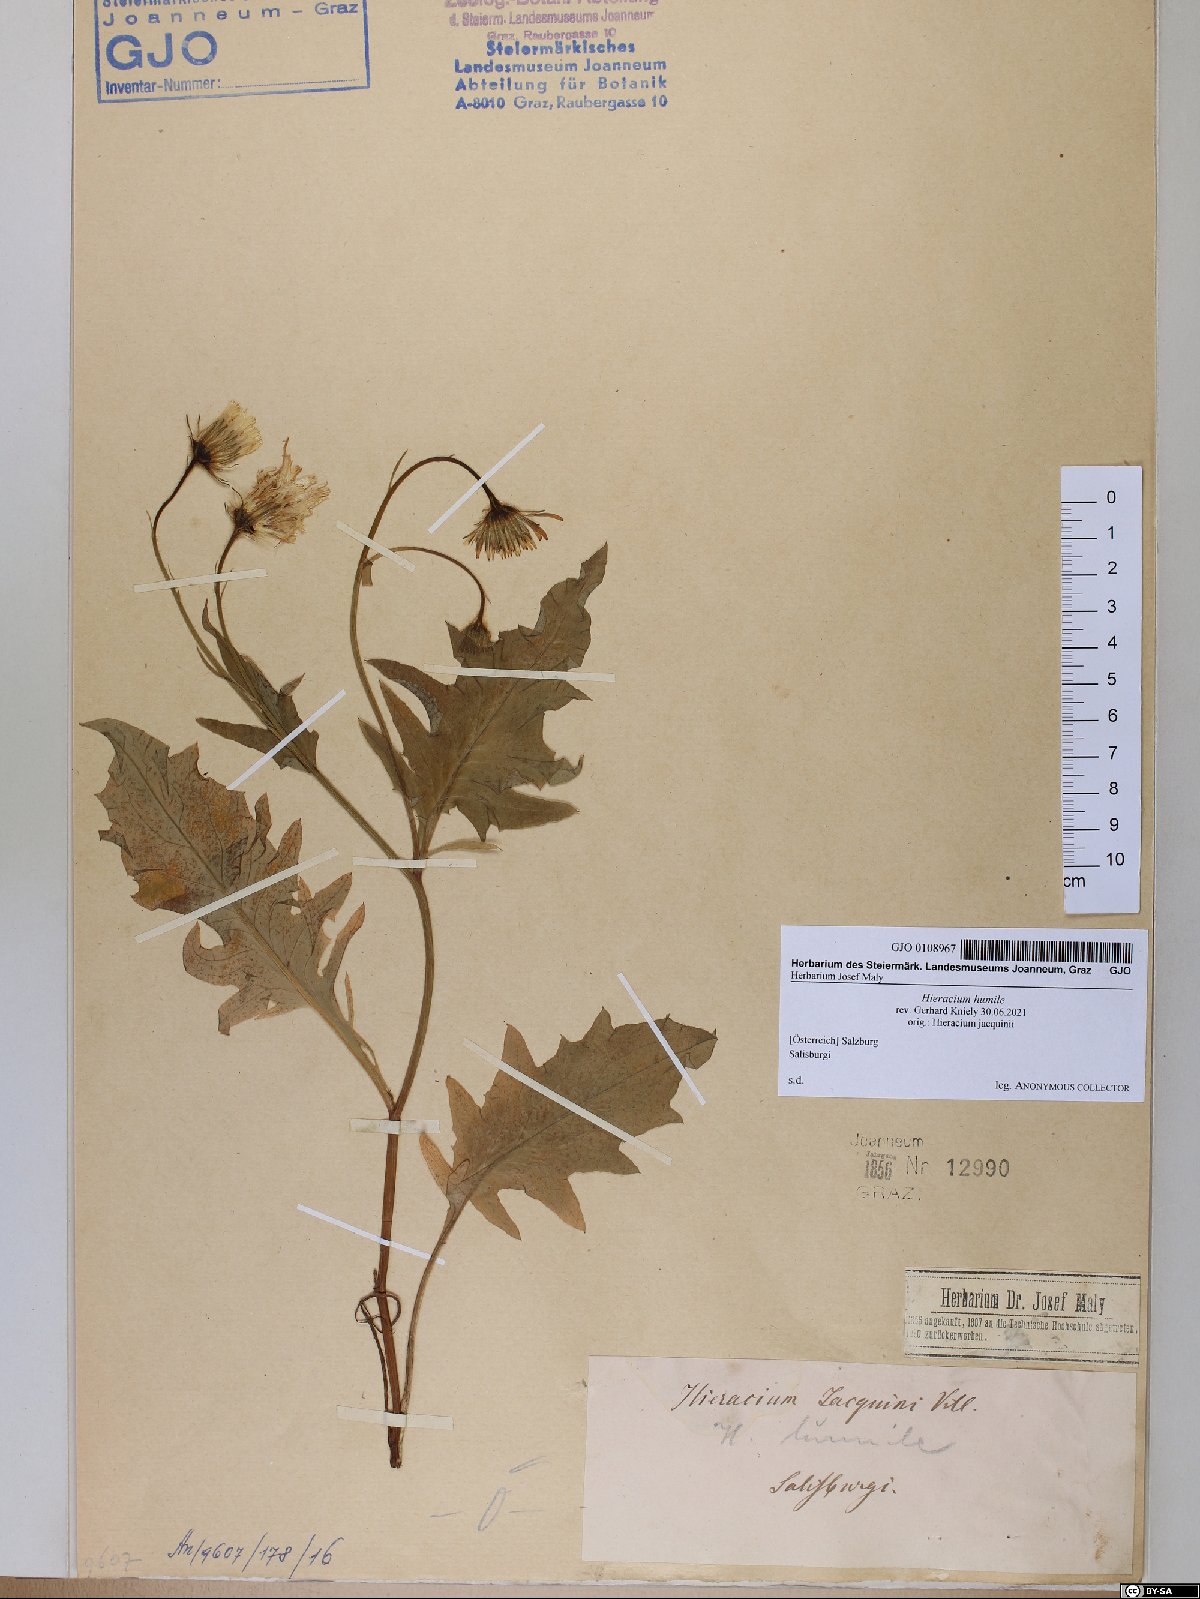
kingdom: Plantae
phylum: Tracheophyta
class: Magnoliopsida
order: Asterales
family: Asteraceae
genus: Hieracium
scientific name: Hieracium humile
